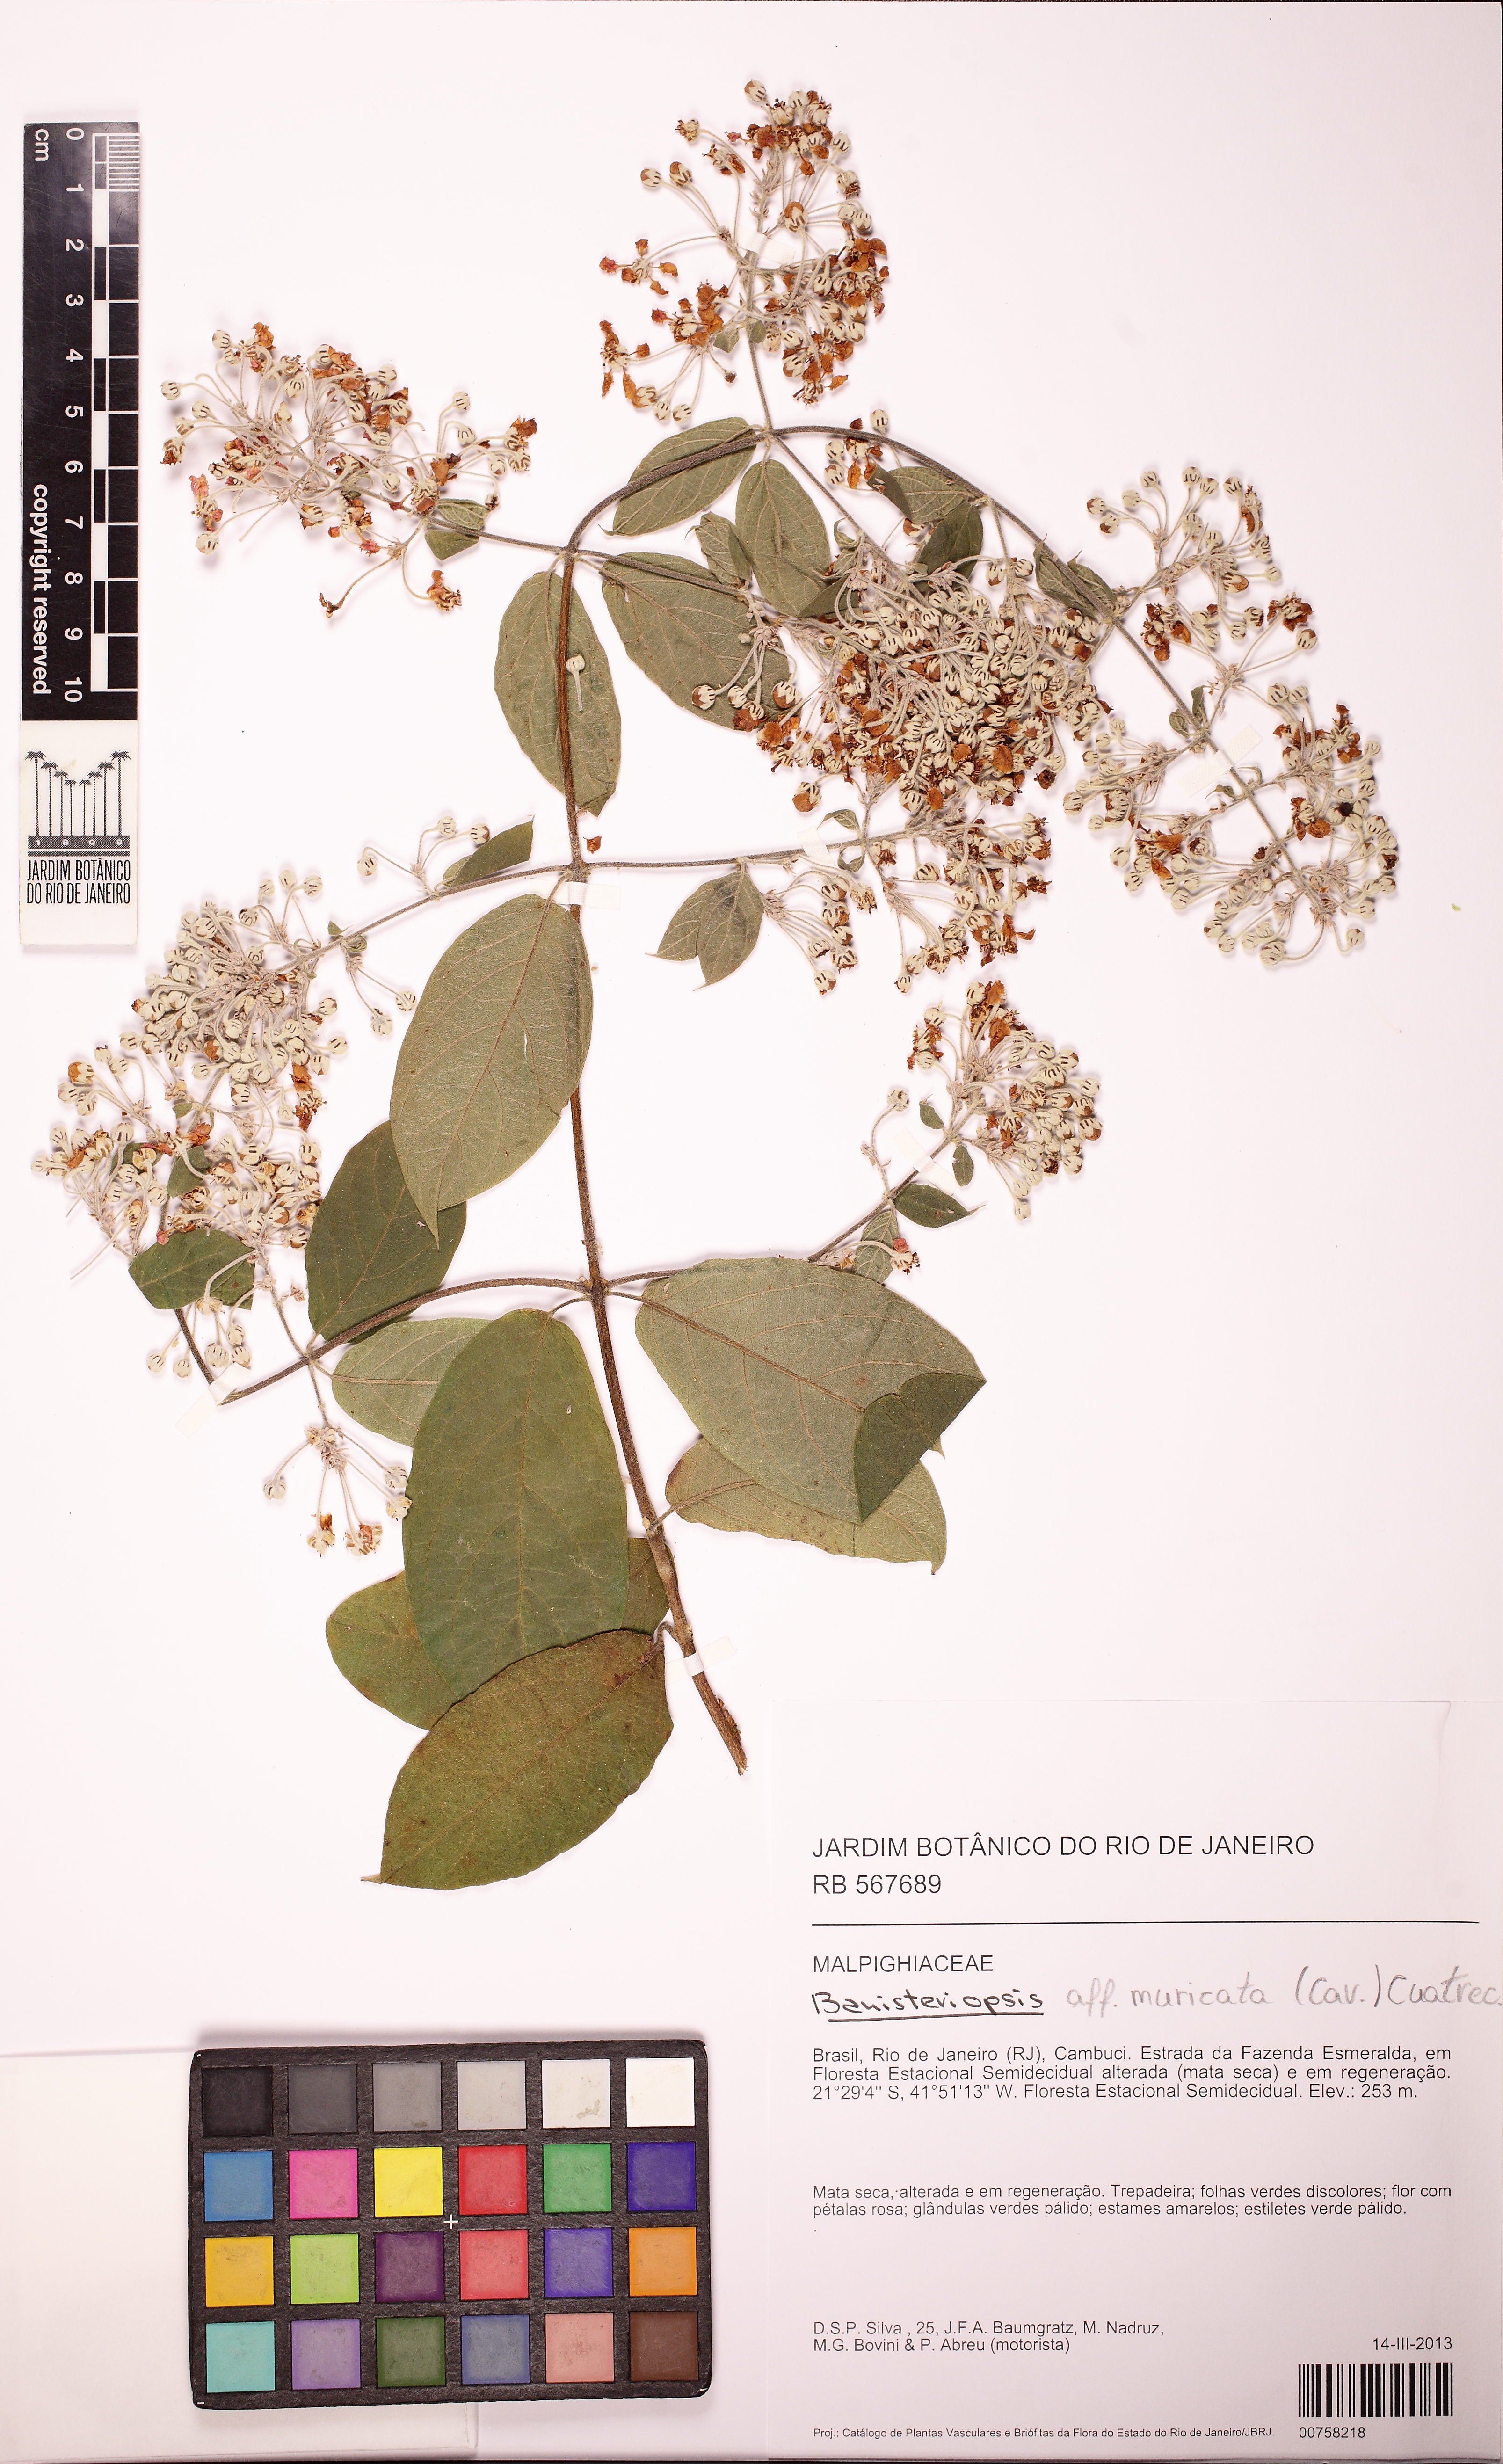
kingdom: Plantae
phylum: Tracheophyta
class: Magnoliopsida
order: Malpighiales
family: Malpighiaceae
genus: Banisteriopsis
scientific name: Banisteriopsis muricata
